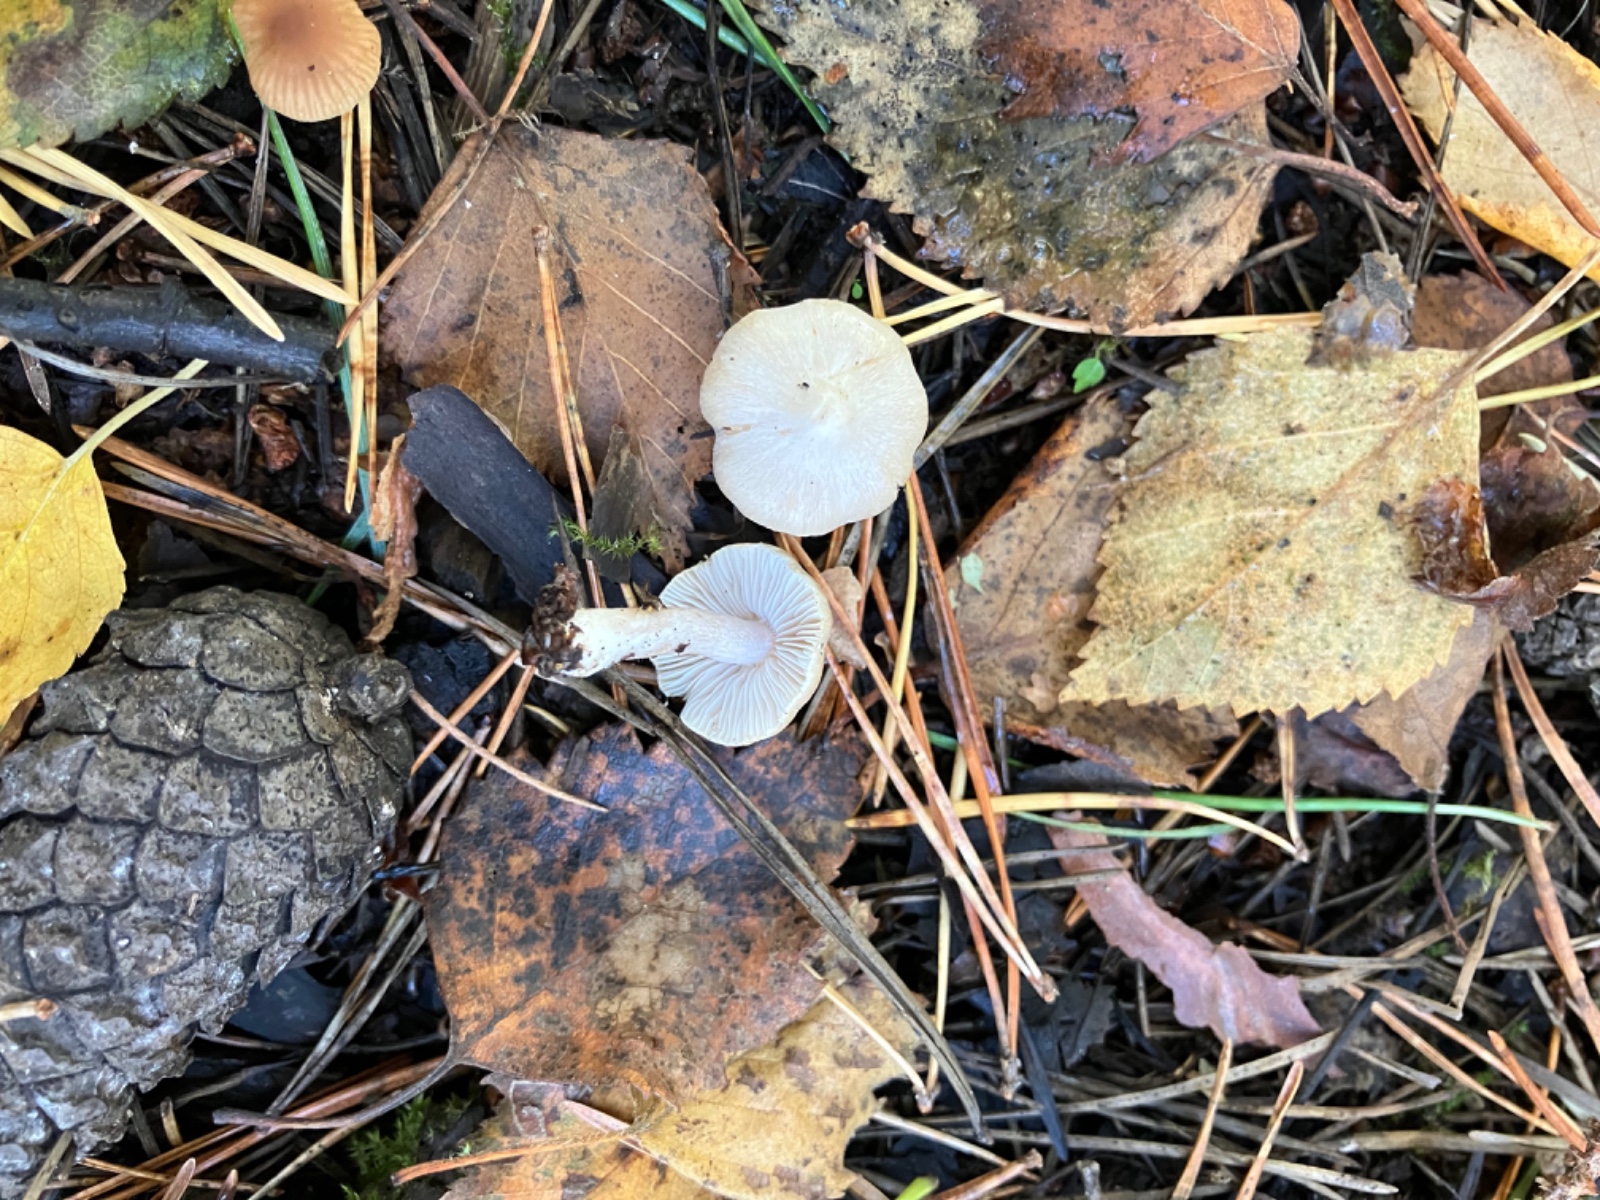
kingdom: Fungi
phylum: Basidiomycota
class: Agaricomycetes
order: Agaricales
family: Inocybaceae
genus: Inocybe
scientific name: Inocybe
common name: trævlhat
